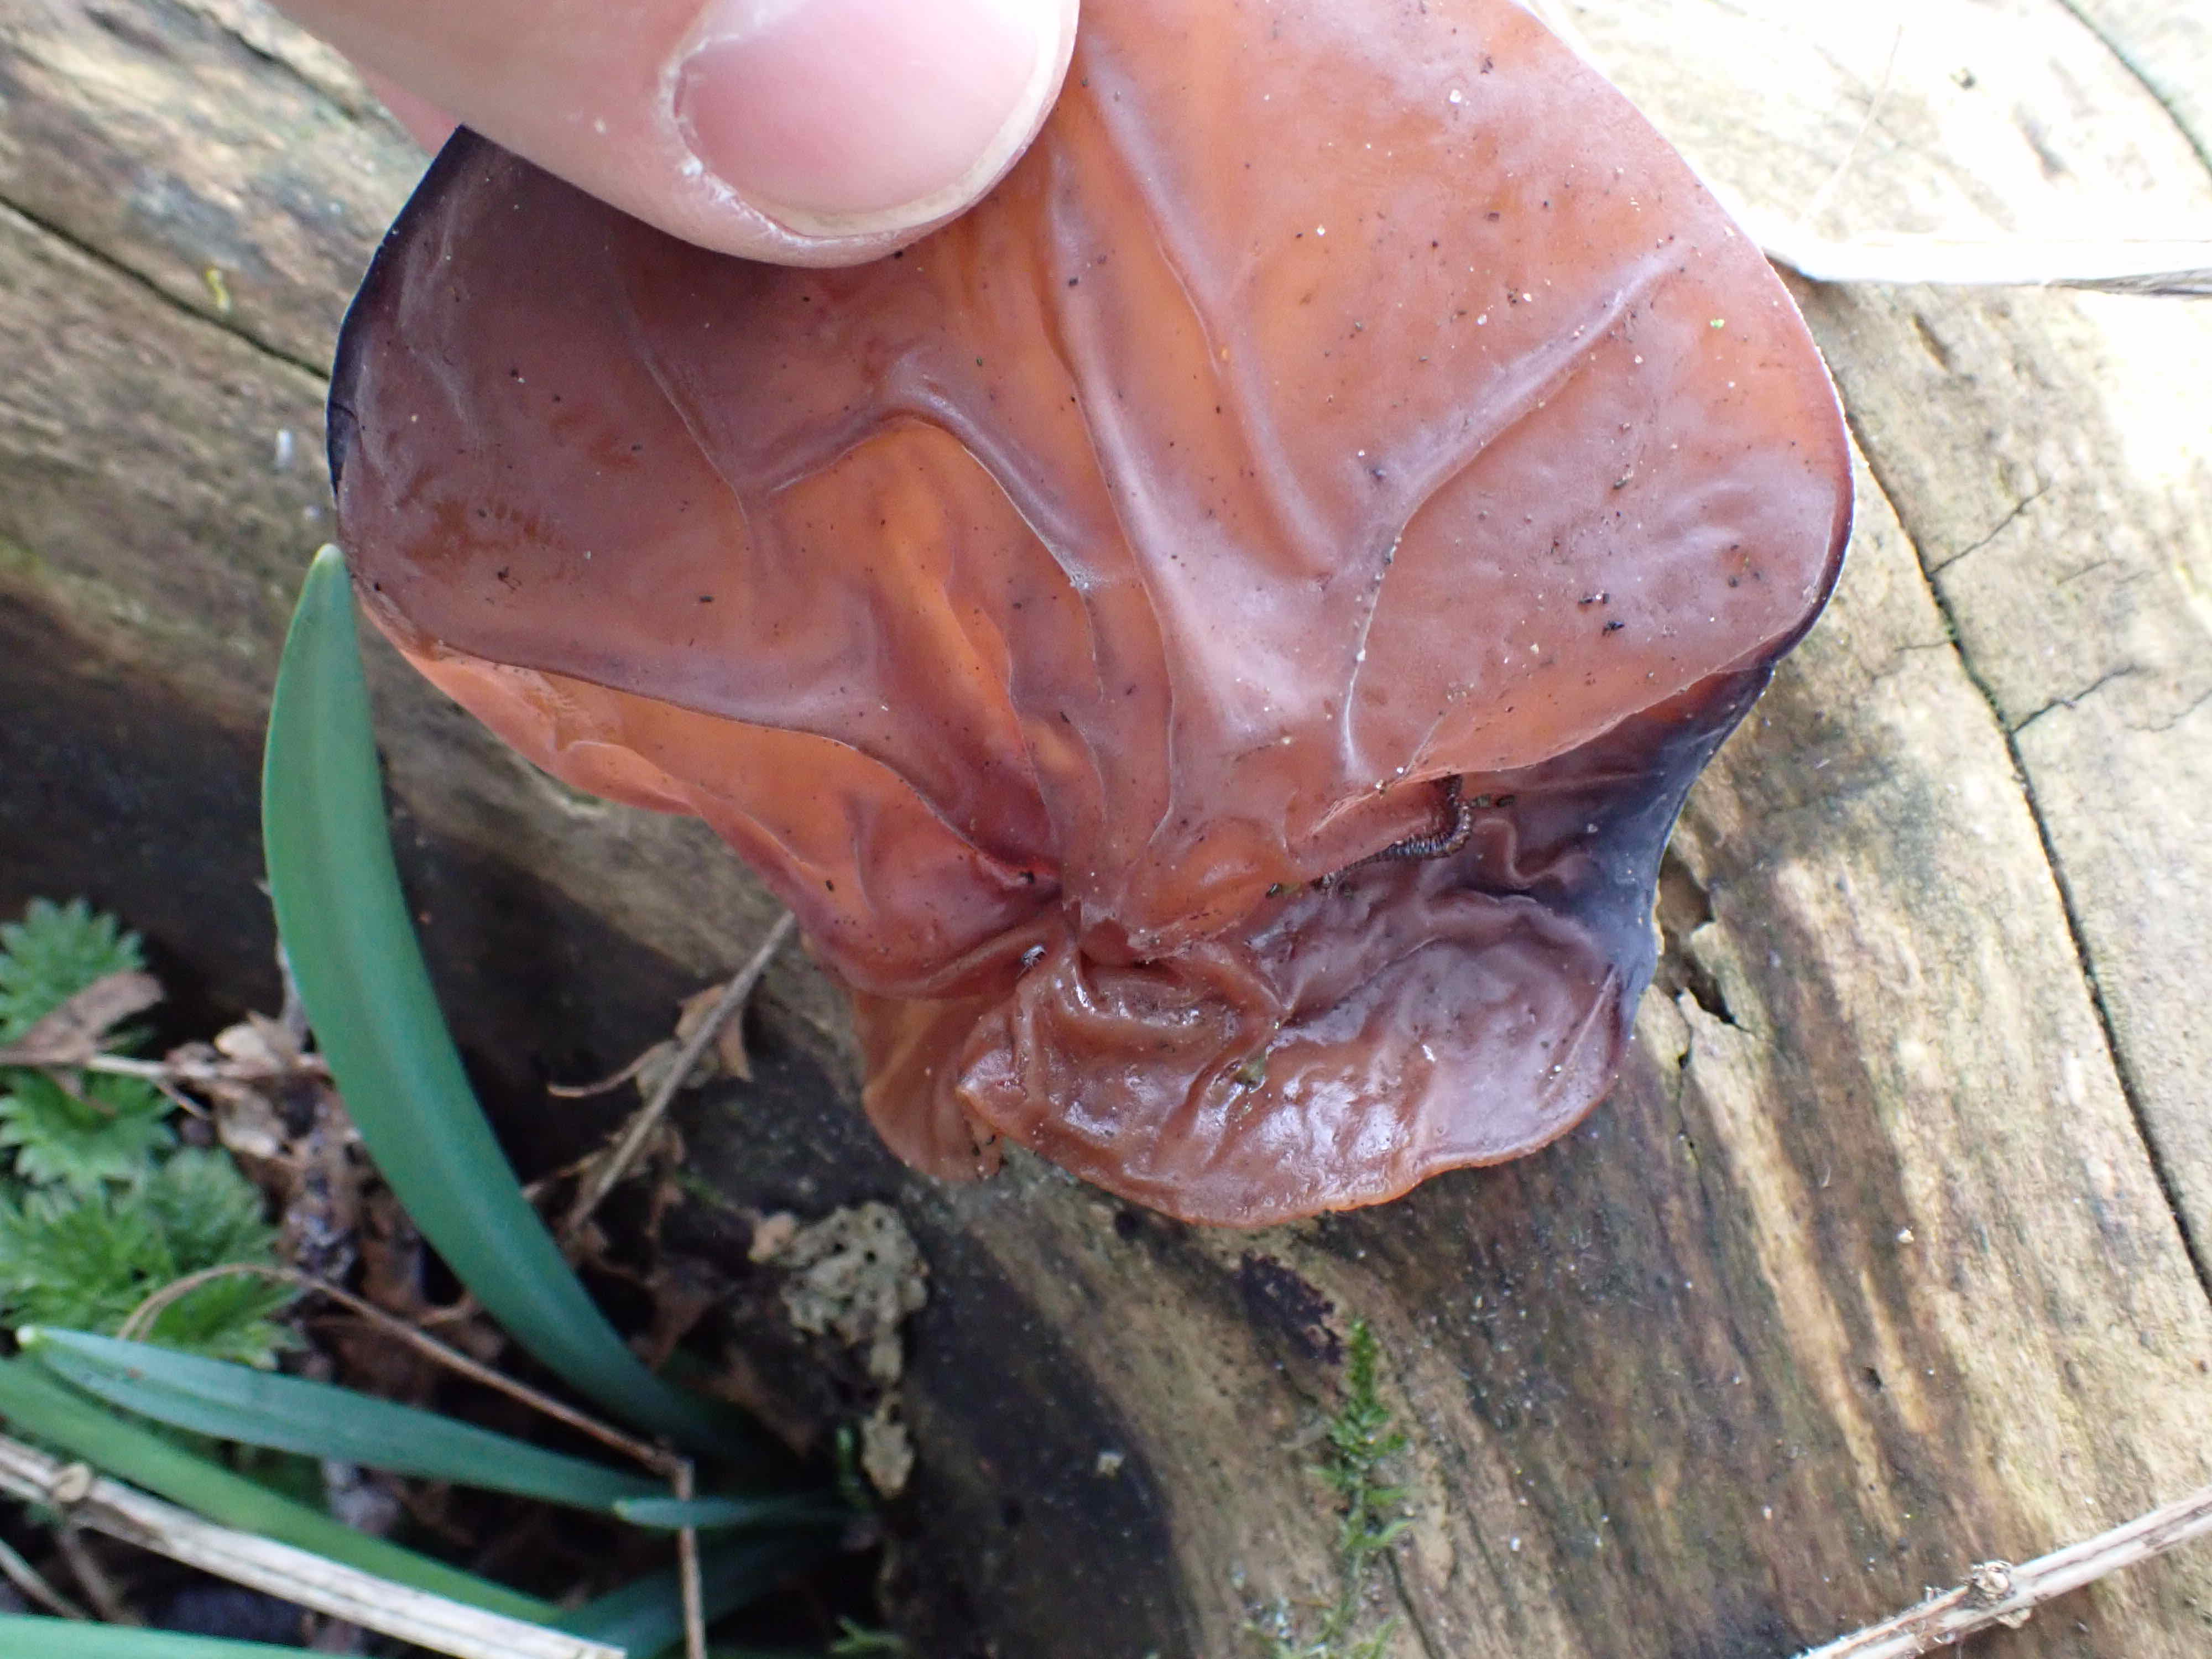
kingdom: Fungi
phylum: Basidiomycota
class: Agaricomycetes
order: Auriculariales
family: Auriculariaceae
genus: Auricularia
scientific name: Auricularia auricula-judae
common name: almindelig judasøre
